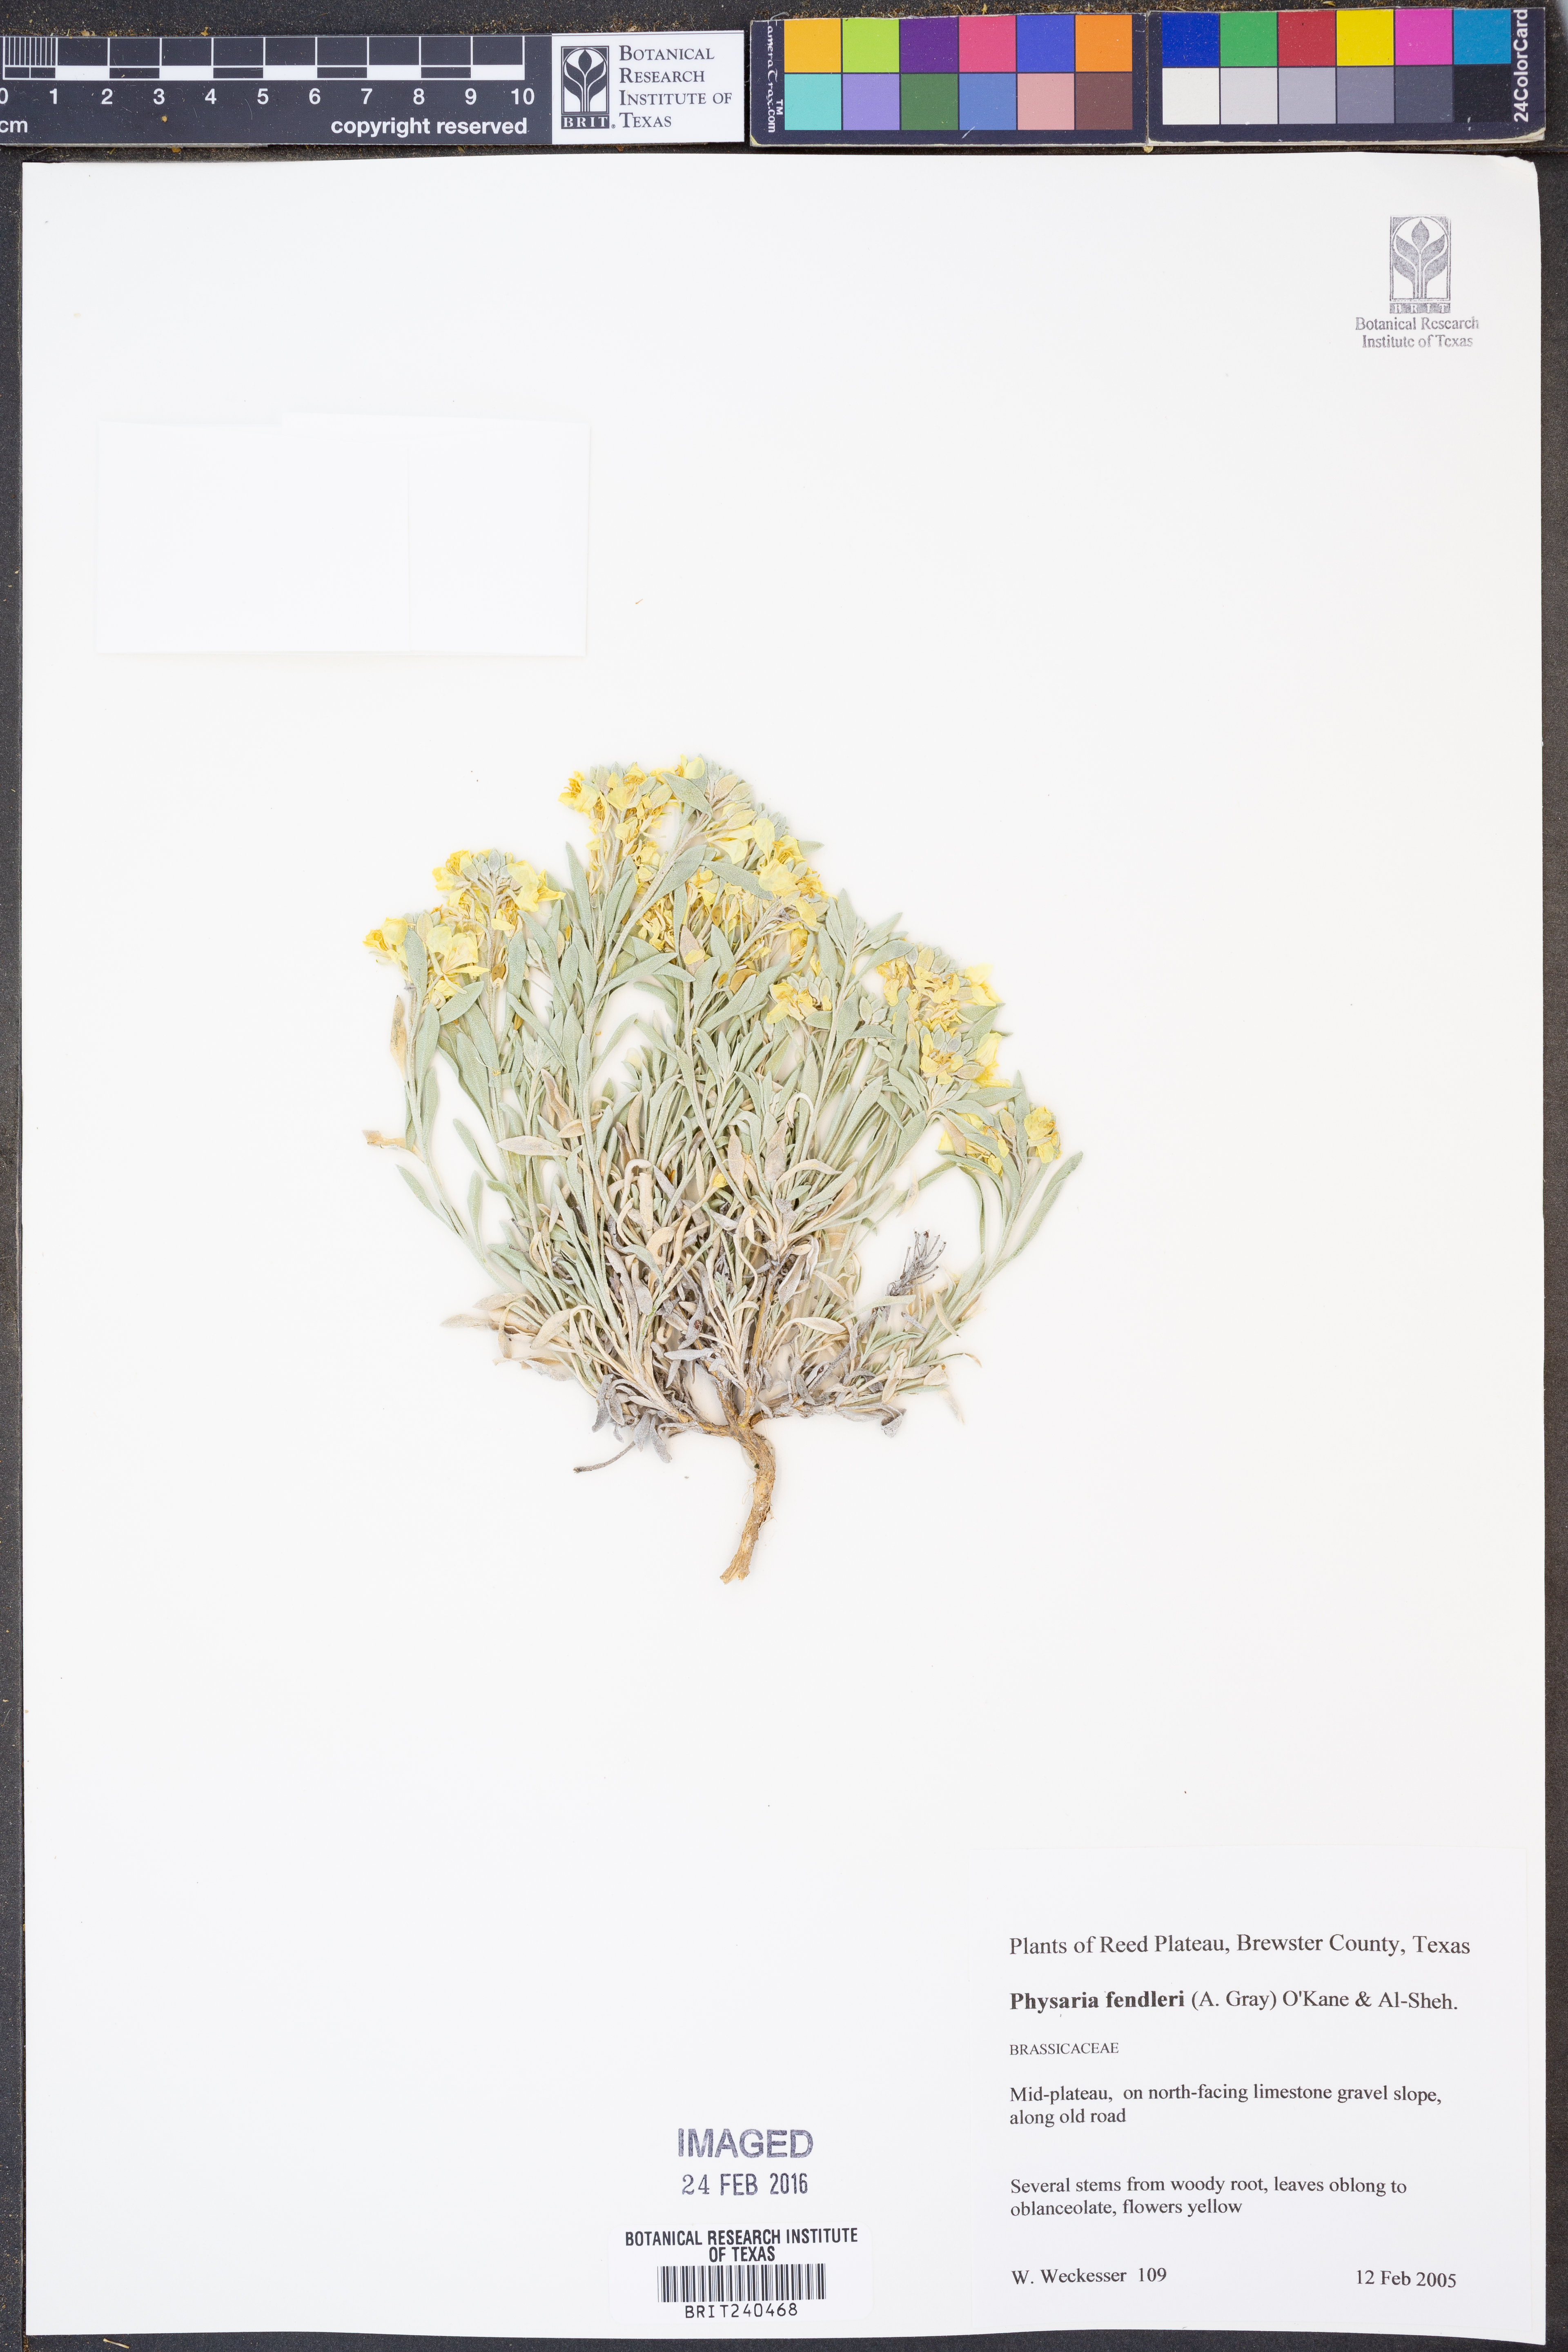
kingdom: Plantae
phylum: Tracheophyta
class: Magnoliopsida
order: Brassicales
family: Brassicaceae
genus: Physaria
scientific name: Physaria fendleri
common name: Fendler's bladderpod
